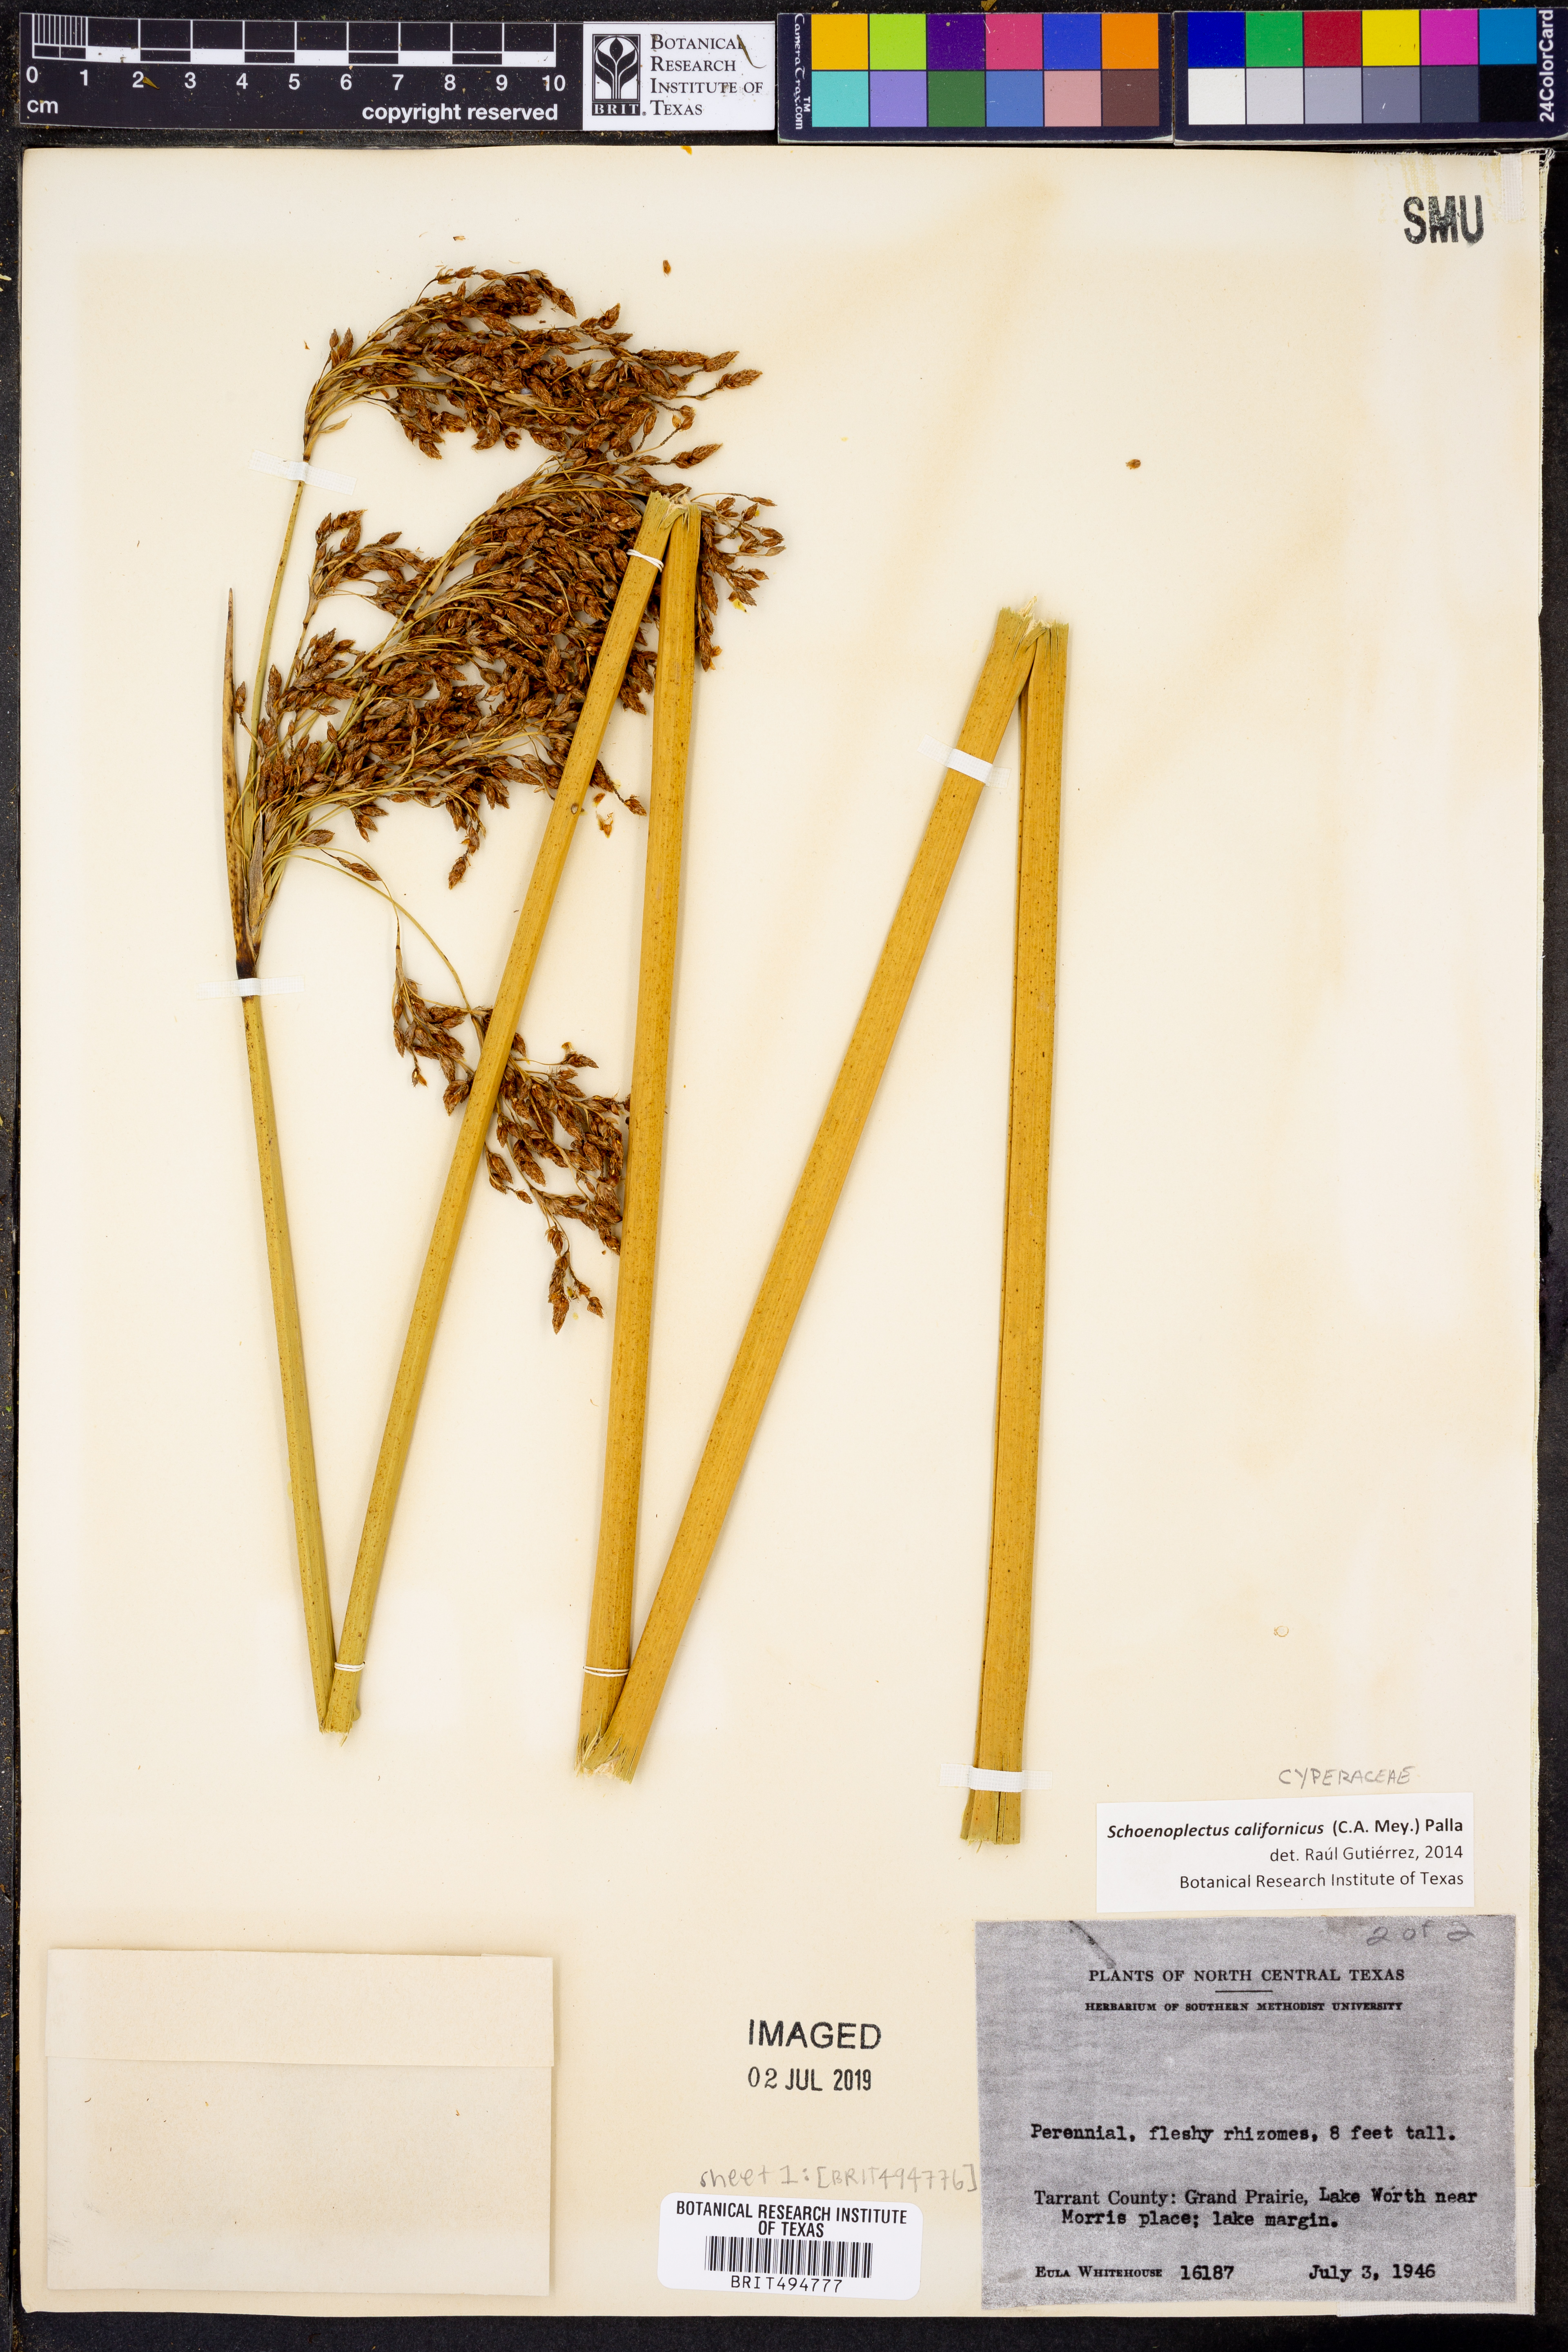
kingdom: Plantae
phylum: Tracheophyta
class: Liliopsida
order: Poales
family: Cyperaceae
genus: Schoenoplectus
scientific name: Schoenoplectus californicus
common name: California bulrush
